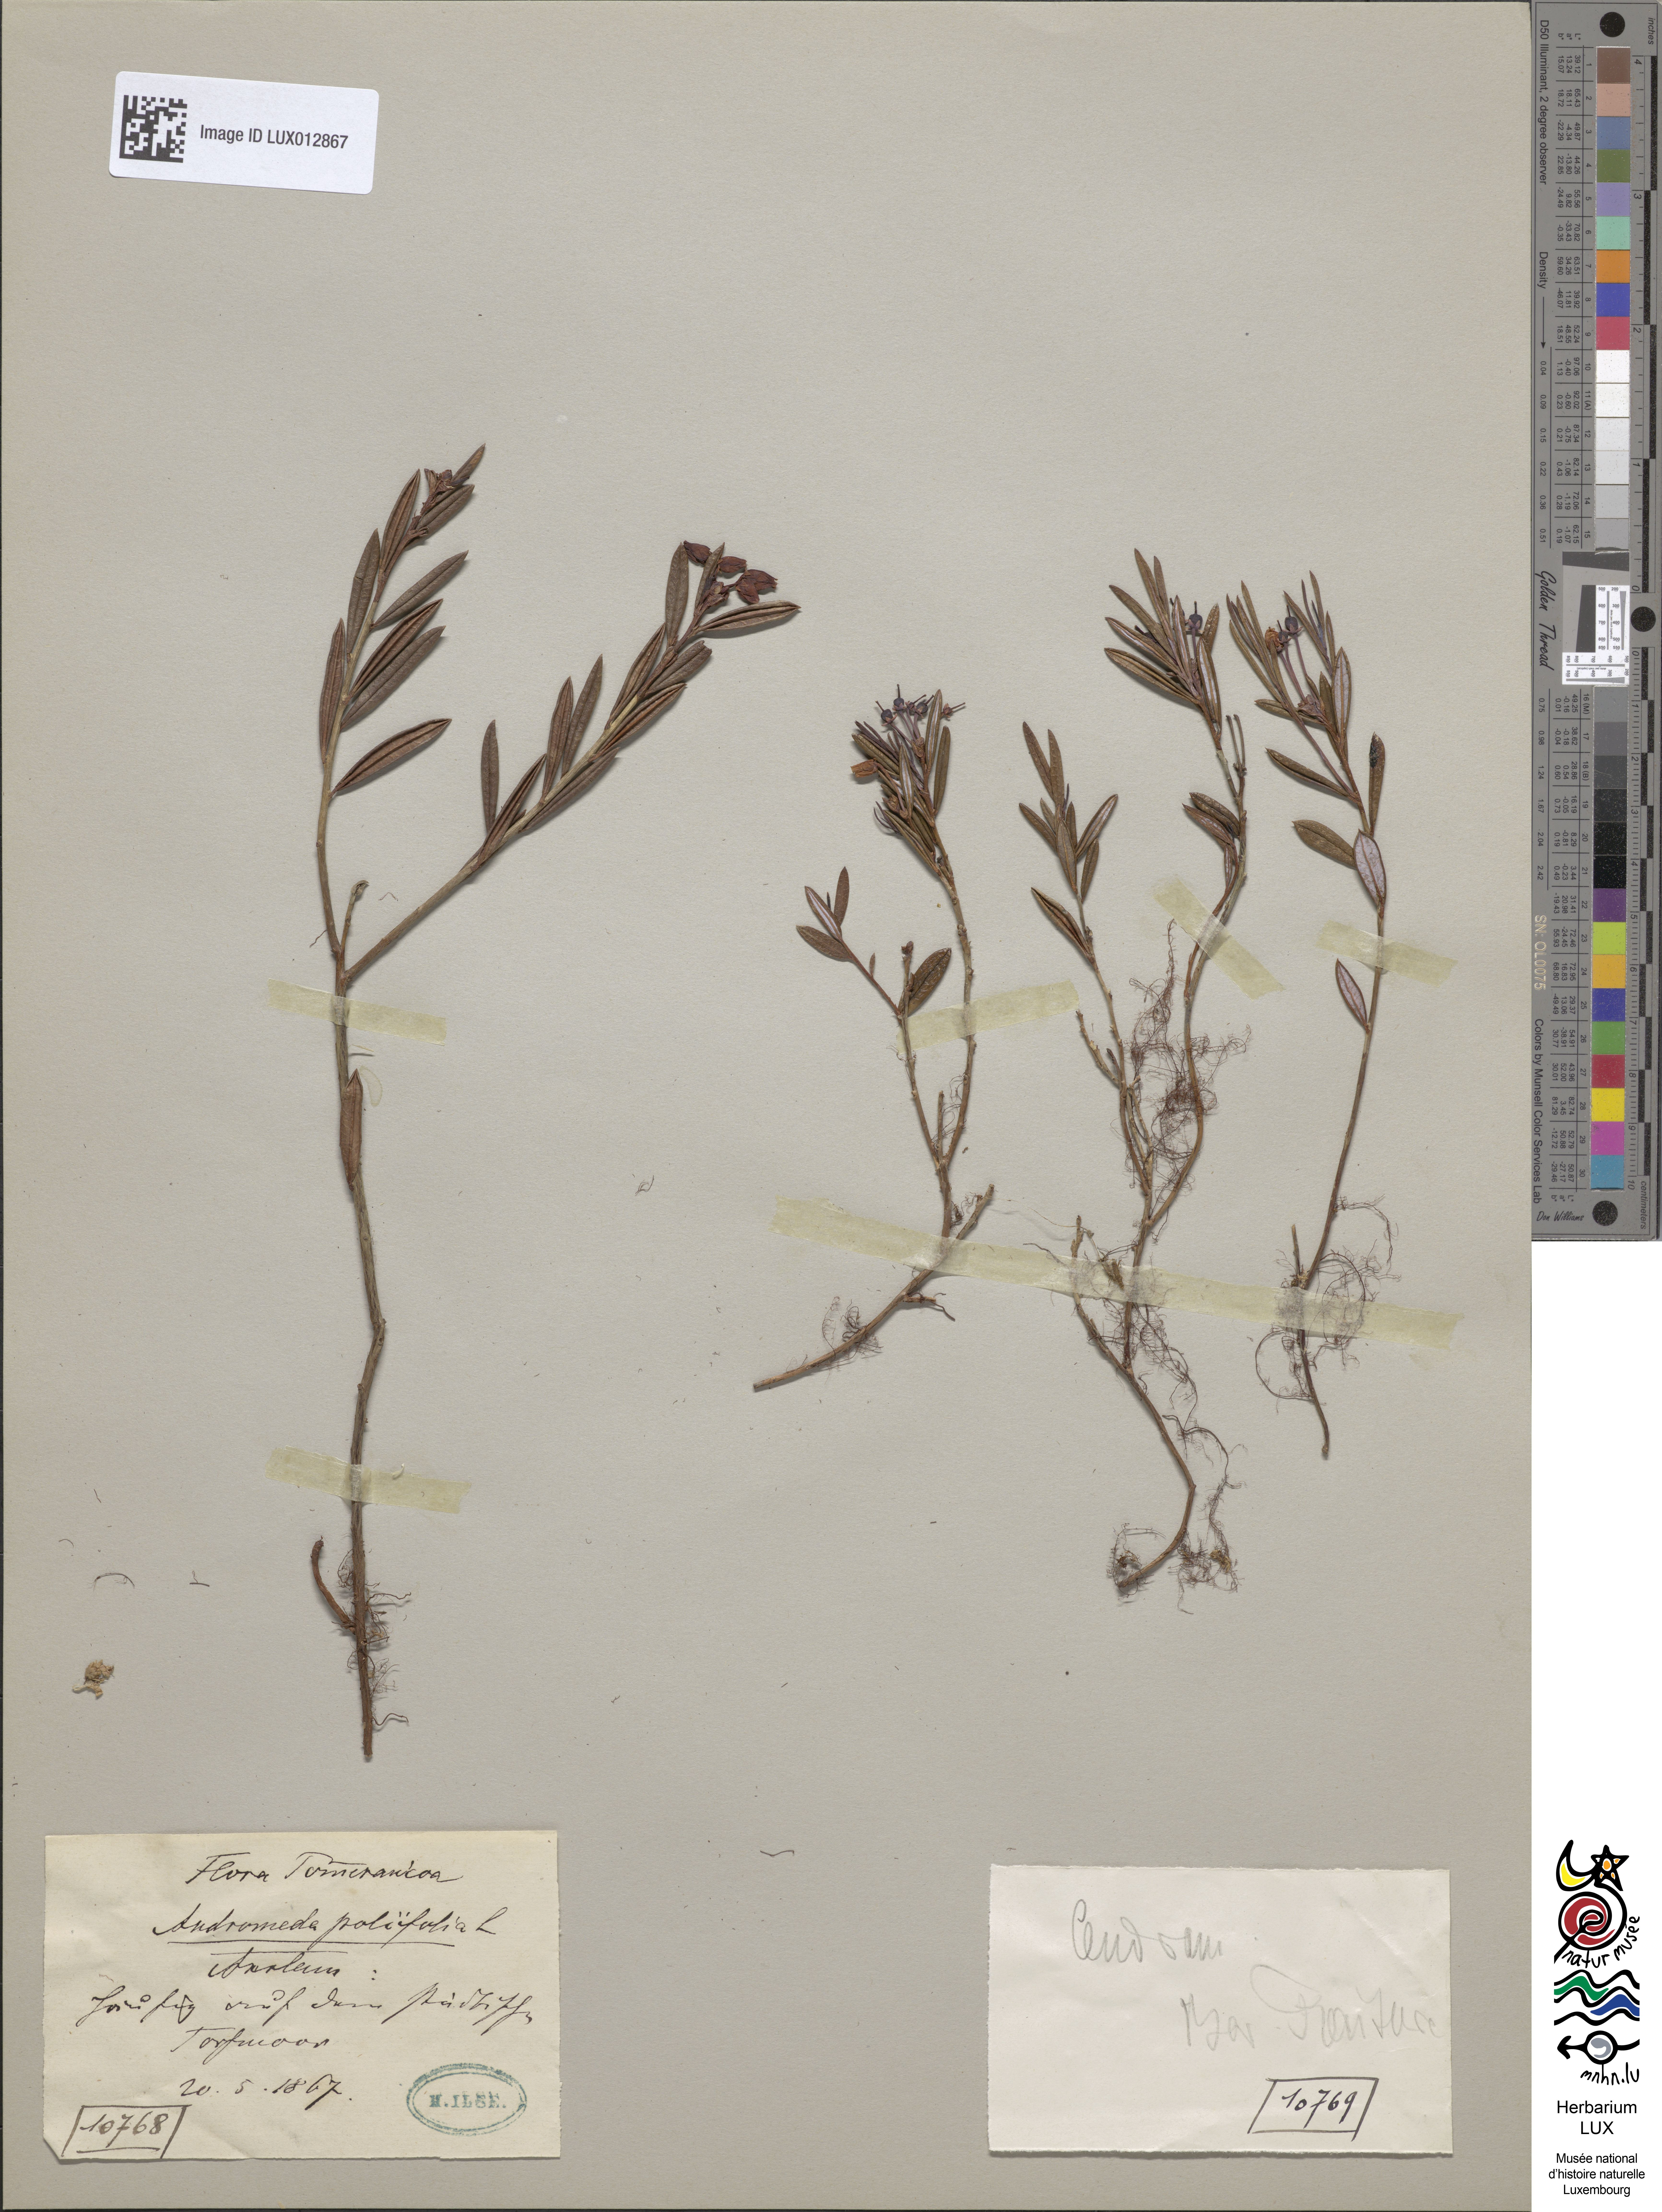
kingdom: Plantae
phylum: Tracheophyta
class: Magnoliopsida
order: Ericales
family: Ericaceae
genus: Andromeda
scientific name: Andromeda polifolia
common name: Bog-rosemary
